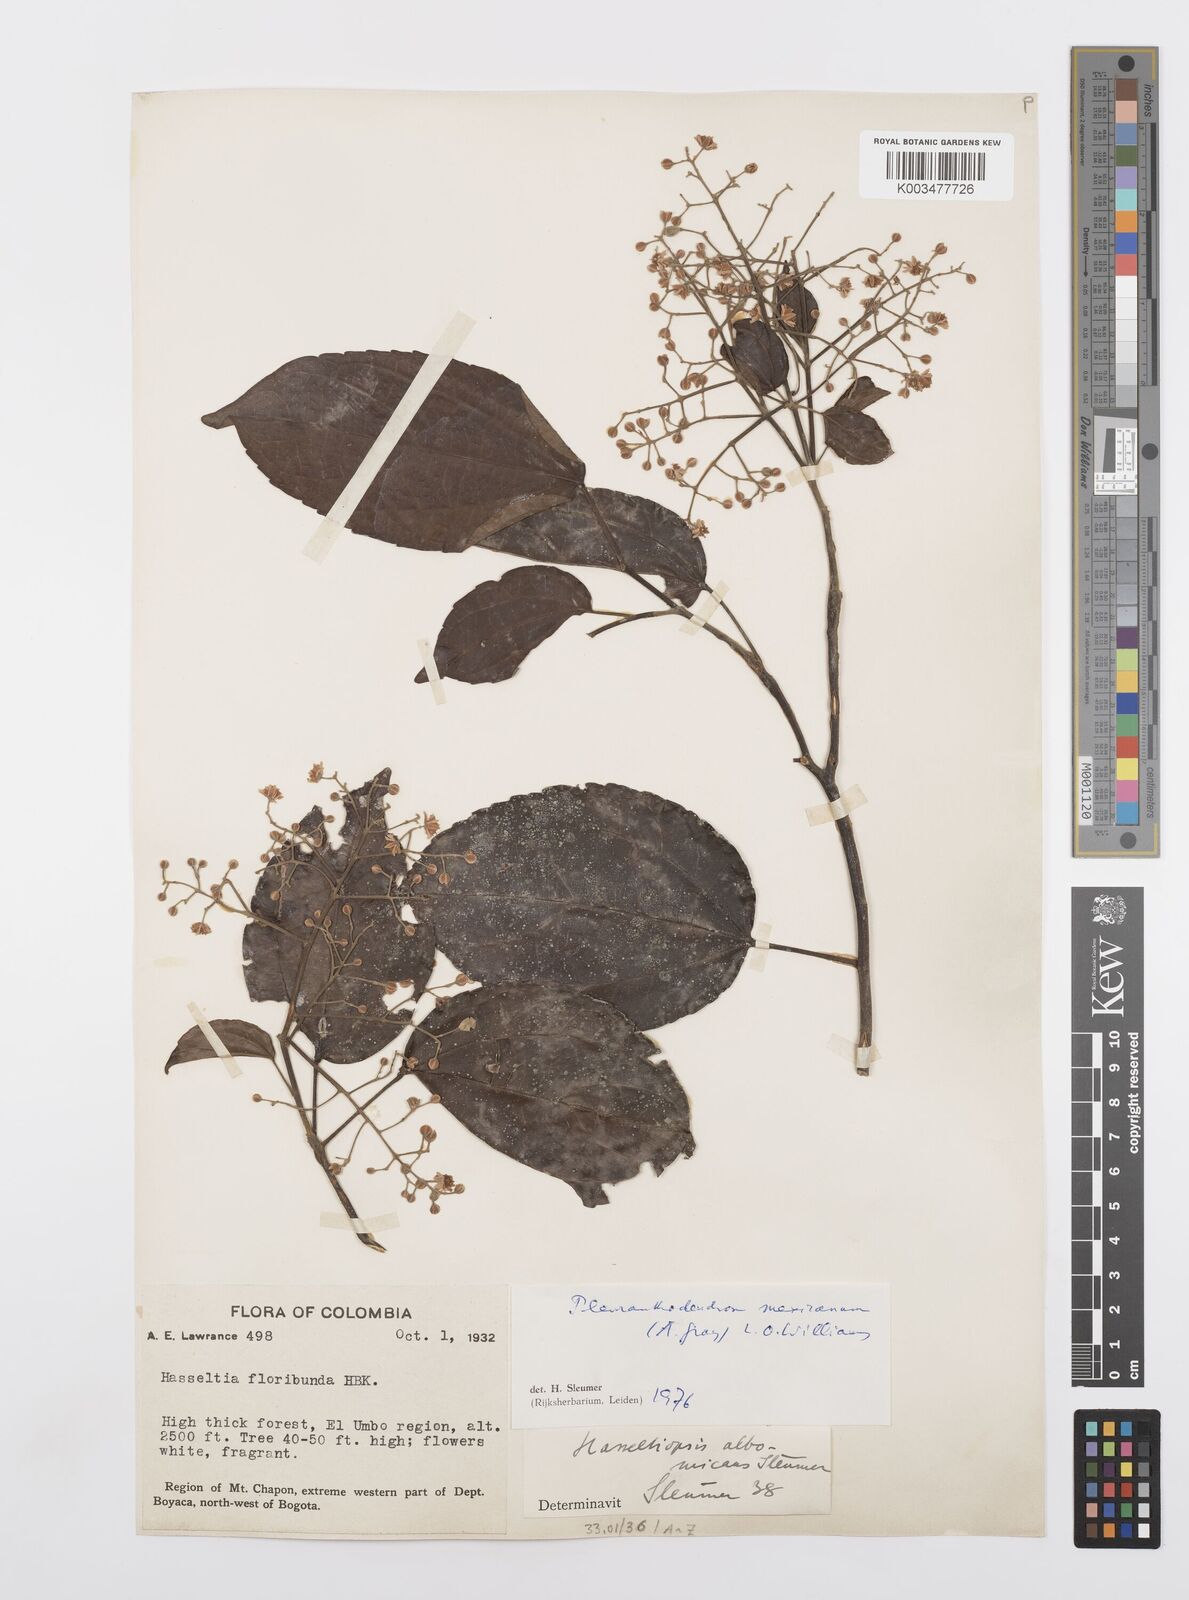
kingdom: Plantae
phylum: Tracheophyta
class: Magnoliopsida
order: Malpighiales
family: Salicaceae
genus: Pleuranthodendron
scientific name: Pleuranthodendron lindenii
